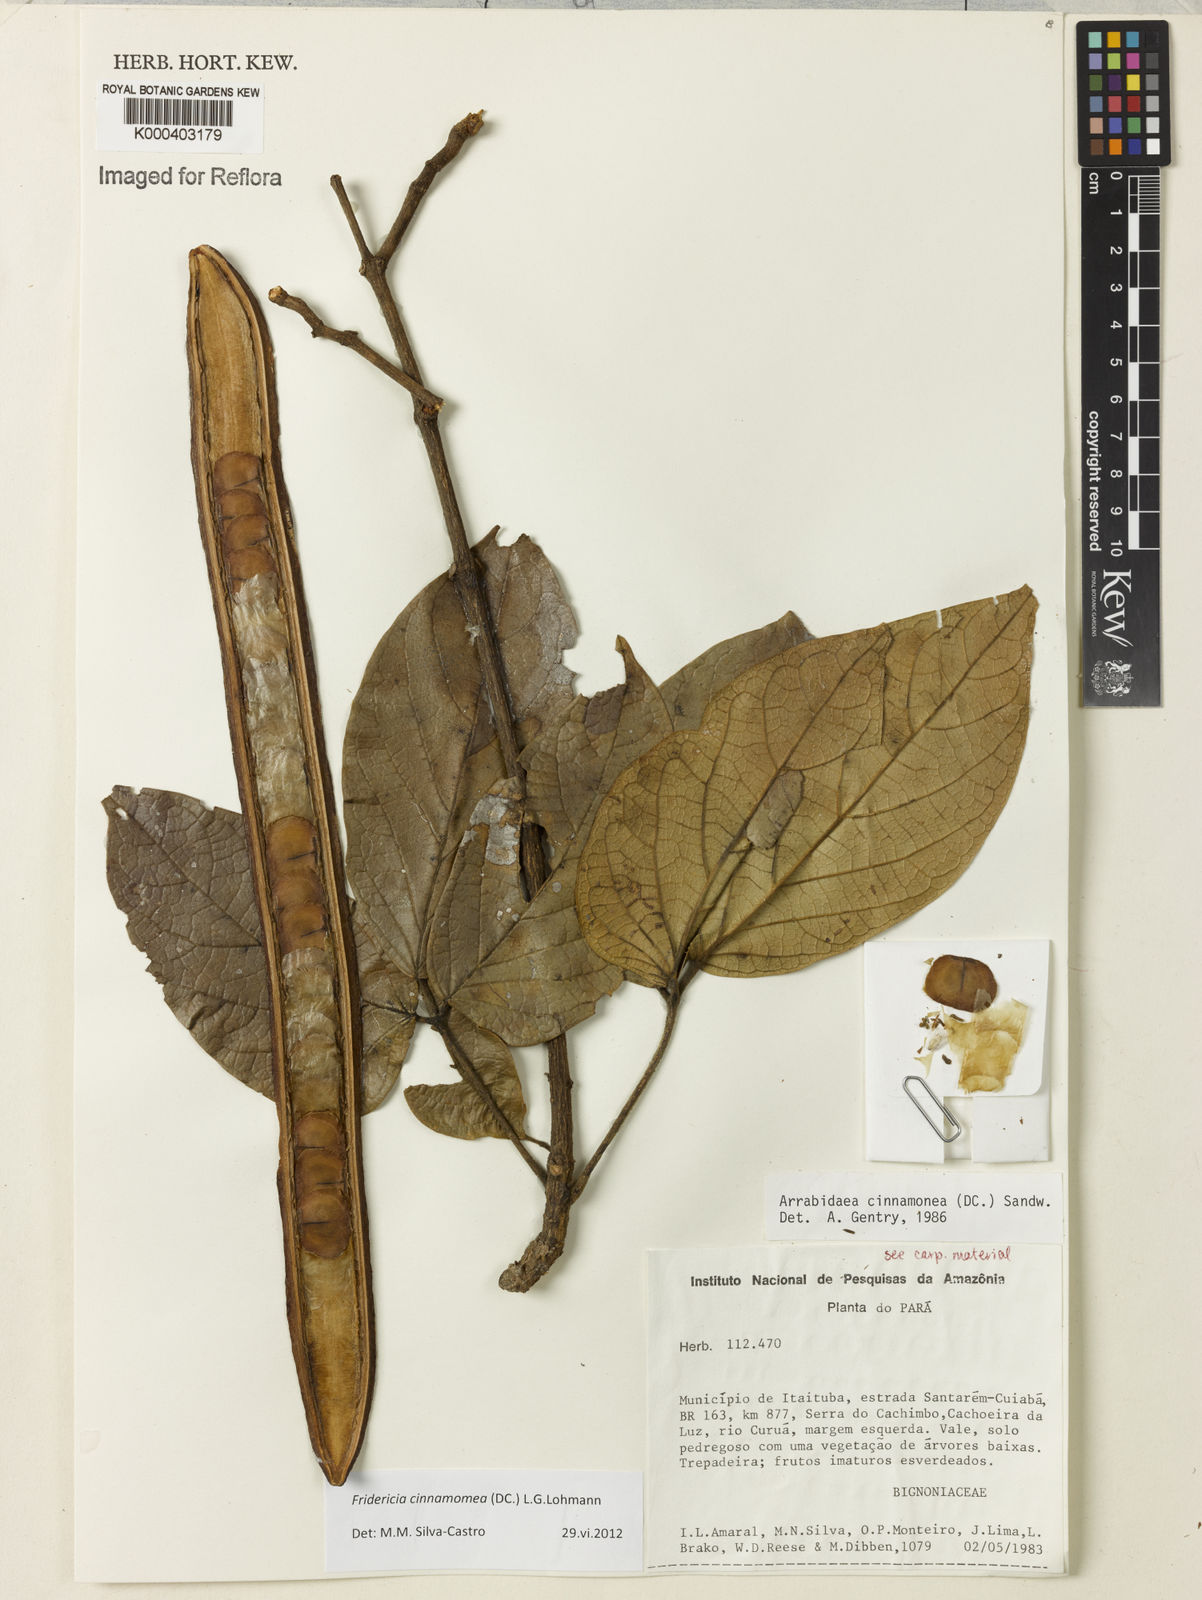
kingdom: Plantae
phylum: Tracheophyta
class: Magnoliopsida
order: Lamiales
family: Bignoniaceae
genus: Fridericia
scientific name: Fridericia cinnamomea
